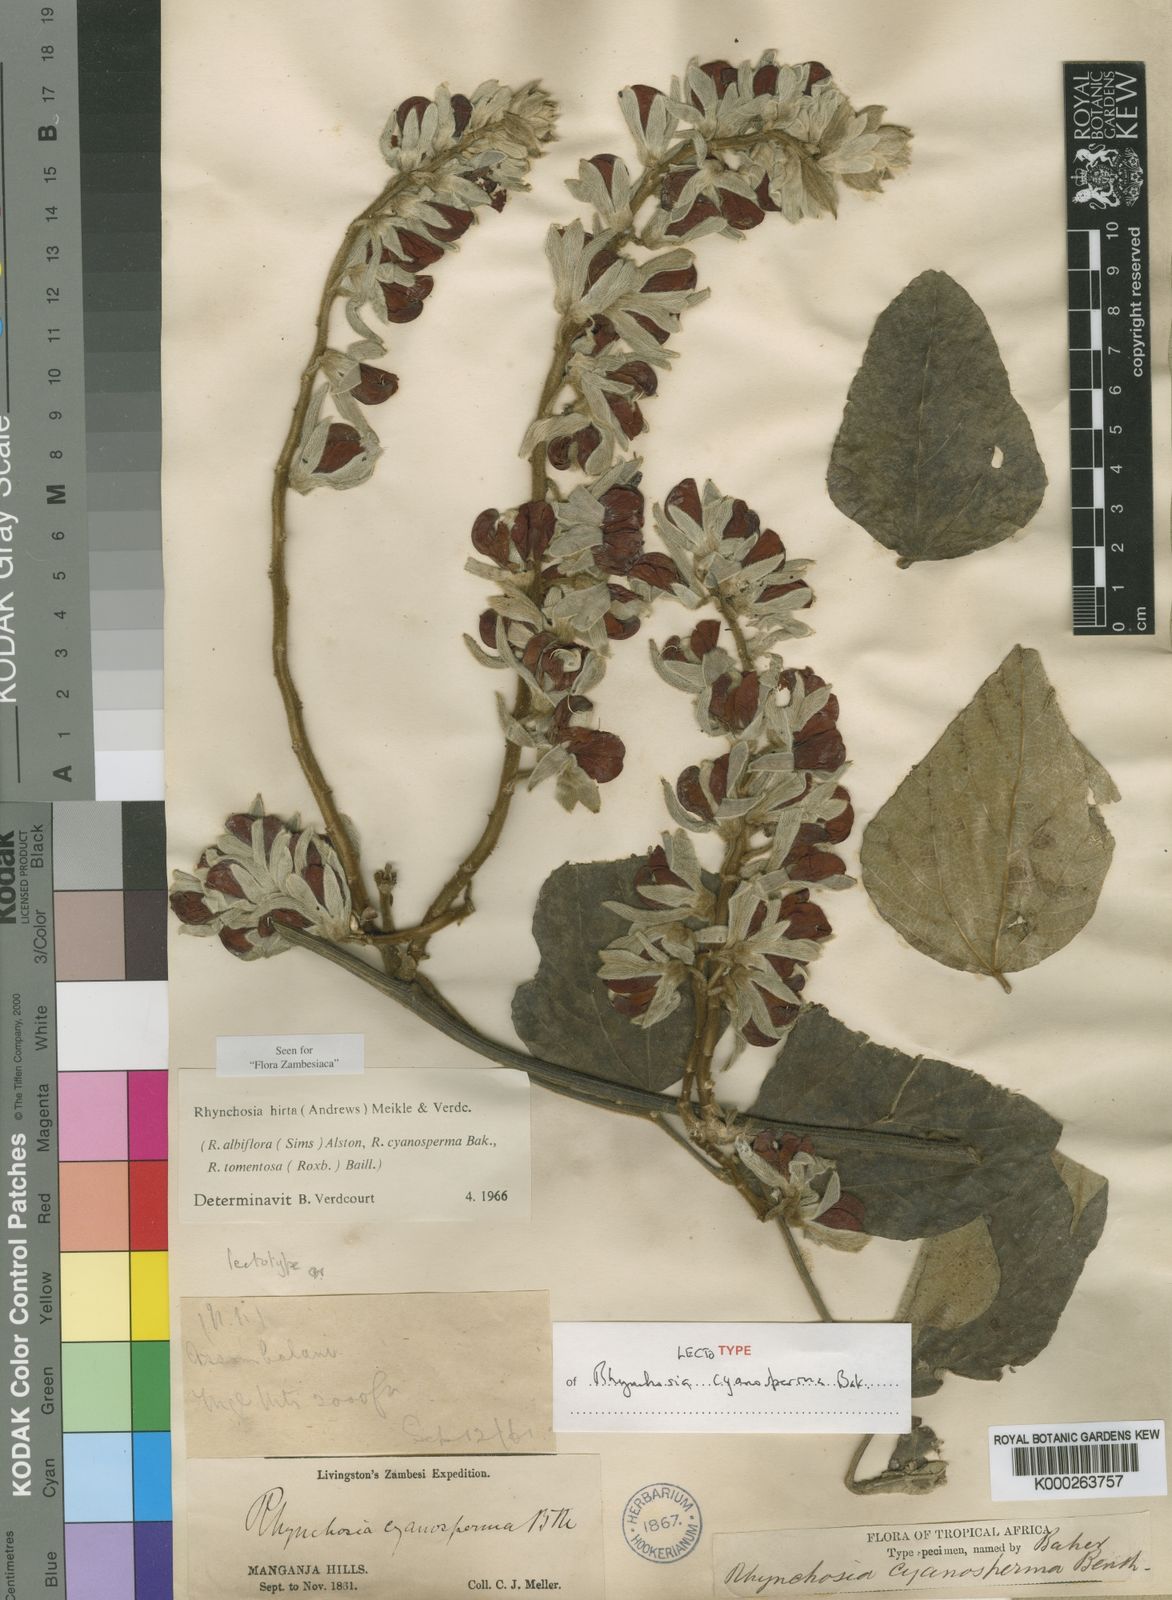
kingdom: Plantae
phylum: Tracheophyta
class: Magnoliopsida
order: Fabales
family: Fabaceae
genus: Rhynchosia
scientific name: Rhynchosia hirta
